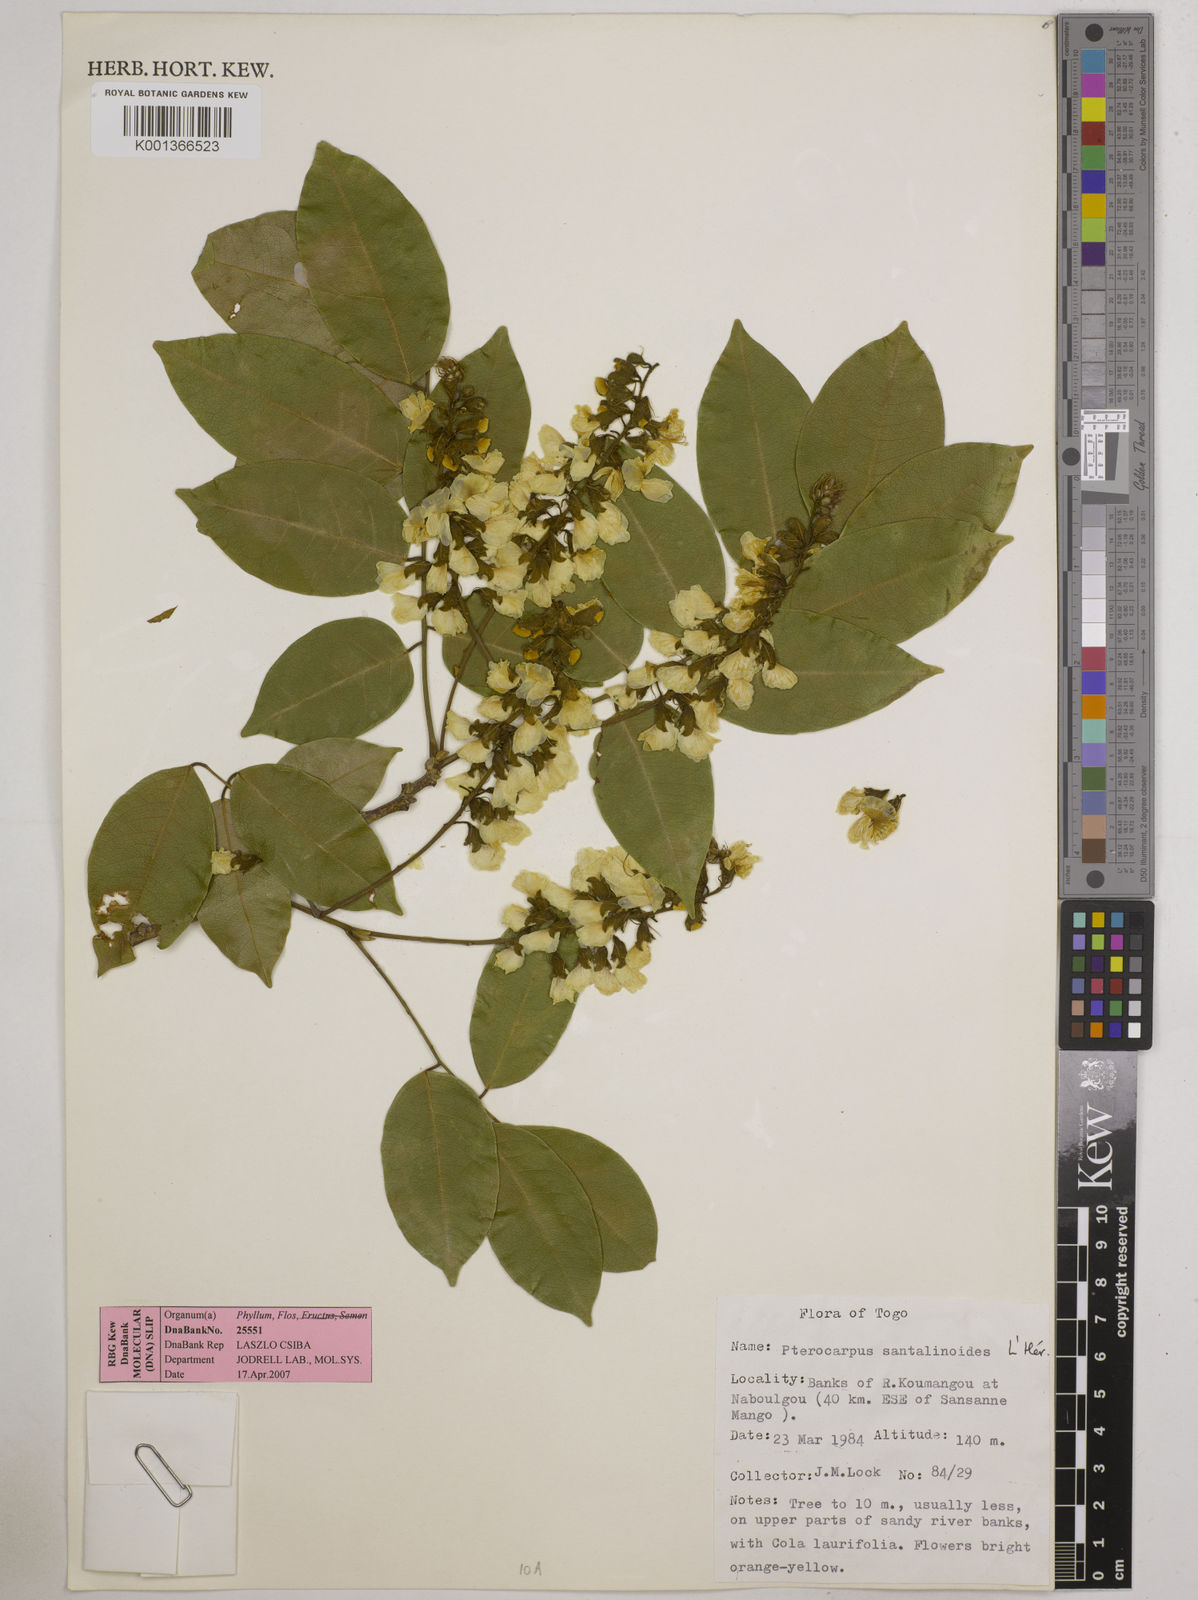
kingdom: Plantae
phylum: Tracheophyta
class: Magnoliopsida
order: Fabales
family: Fabaceae
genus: Pterocarpus
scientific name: Pterocarpus santalinoides
